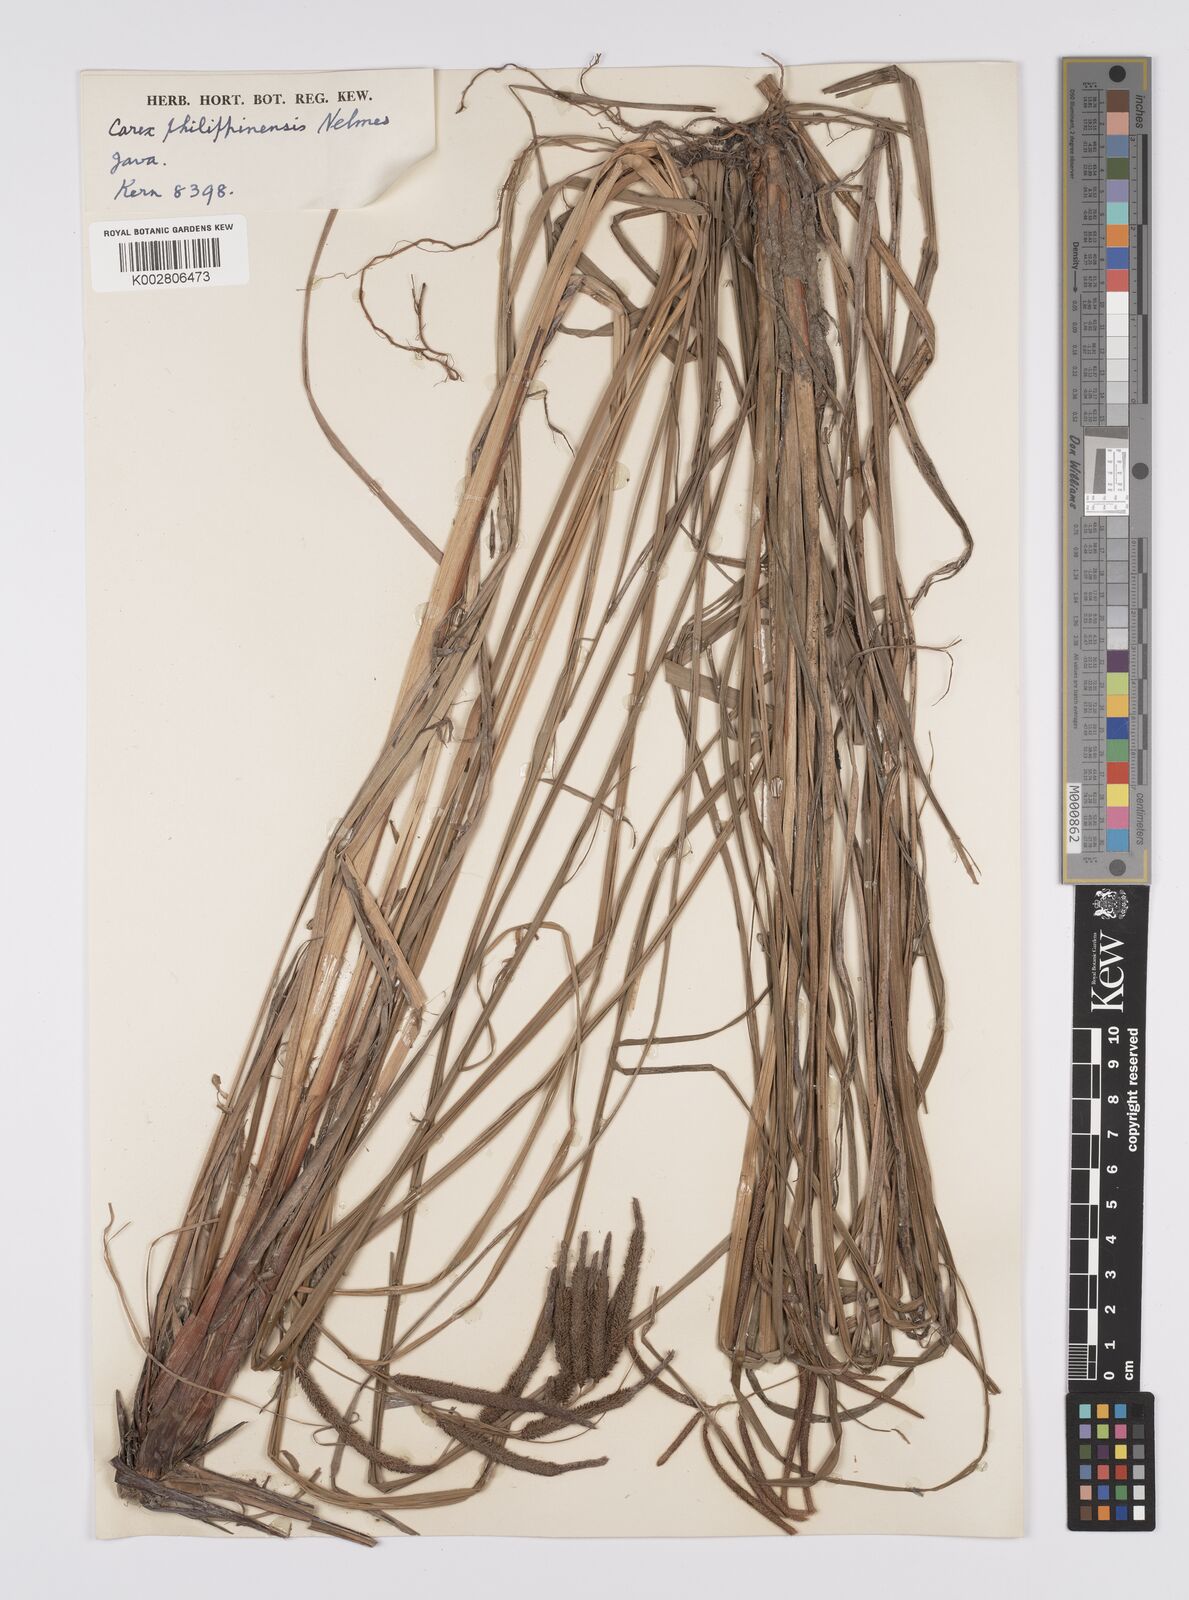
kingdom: Plantae
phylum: Tracheophyta
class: Liliopsida
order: Poales
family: Cyperaceae
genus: Carex
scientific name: Carex graeffeana
